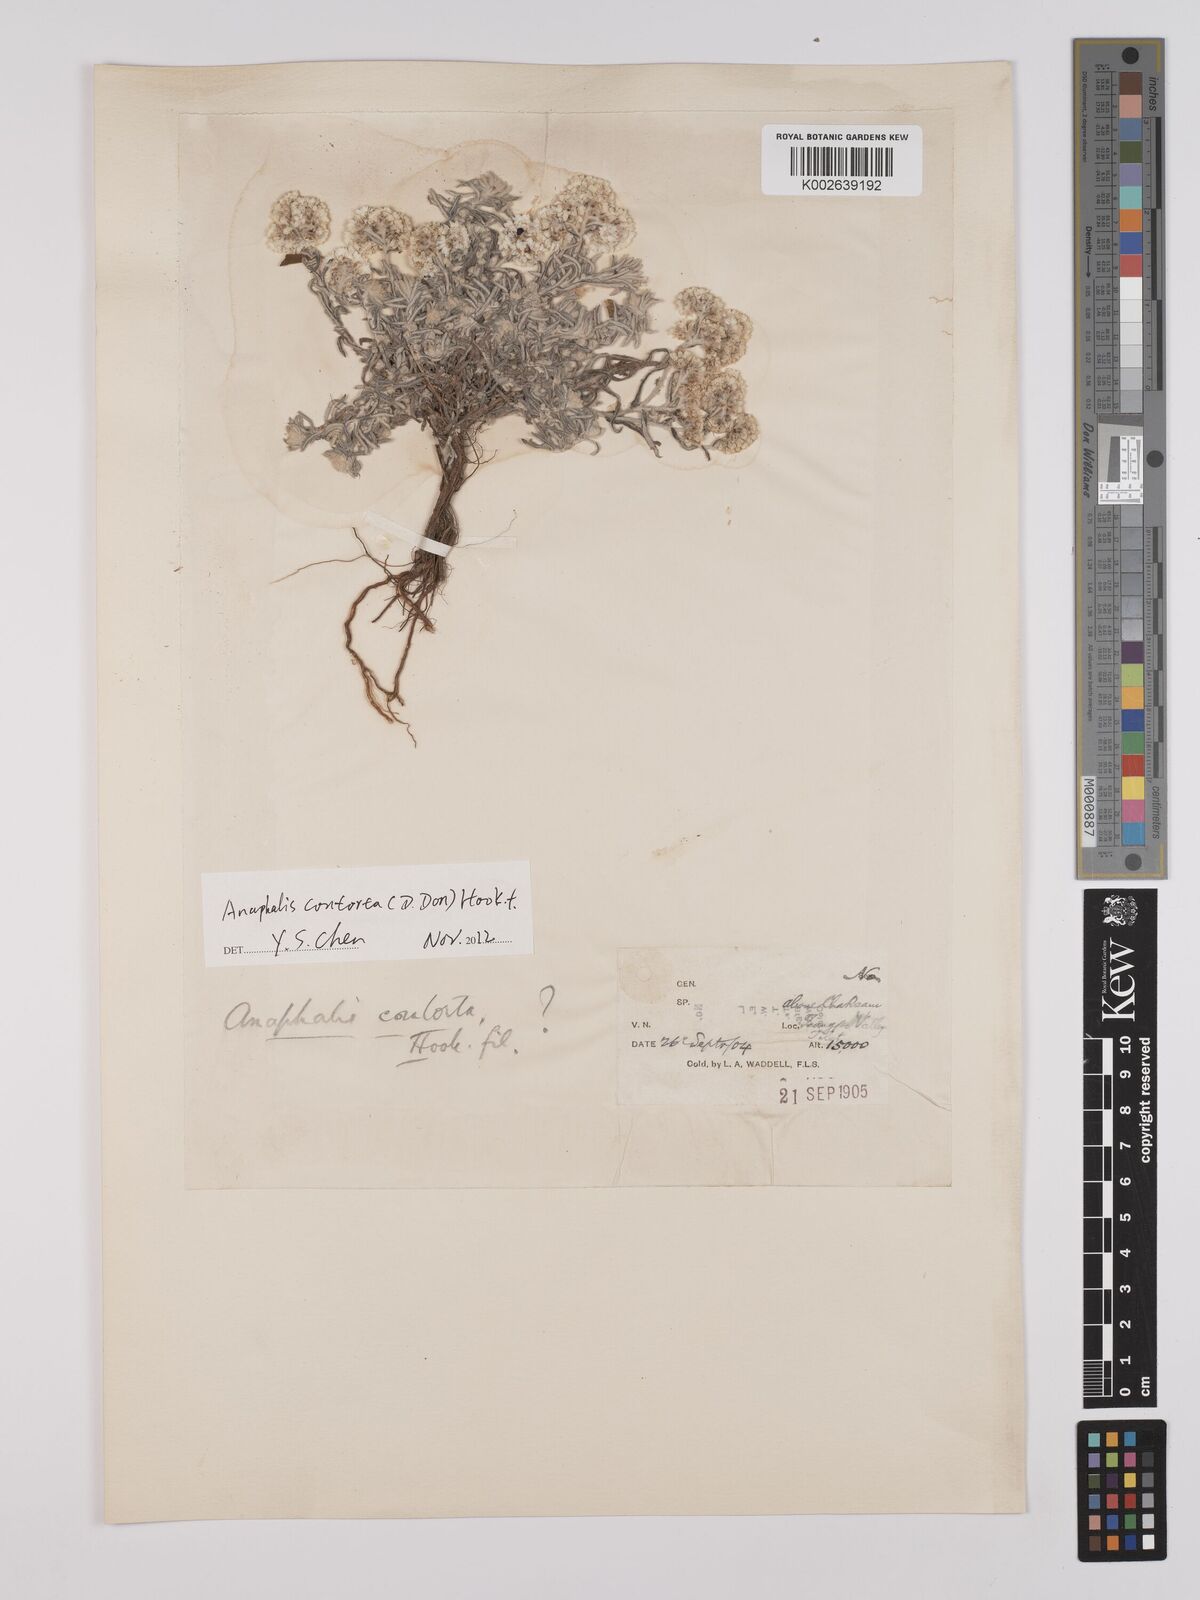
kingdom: Plantae
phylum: Tracheophyta
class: Magnoliopsida
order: Asterales
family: Asteraceae
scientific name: Asteraceae
